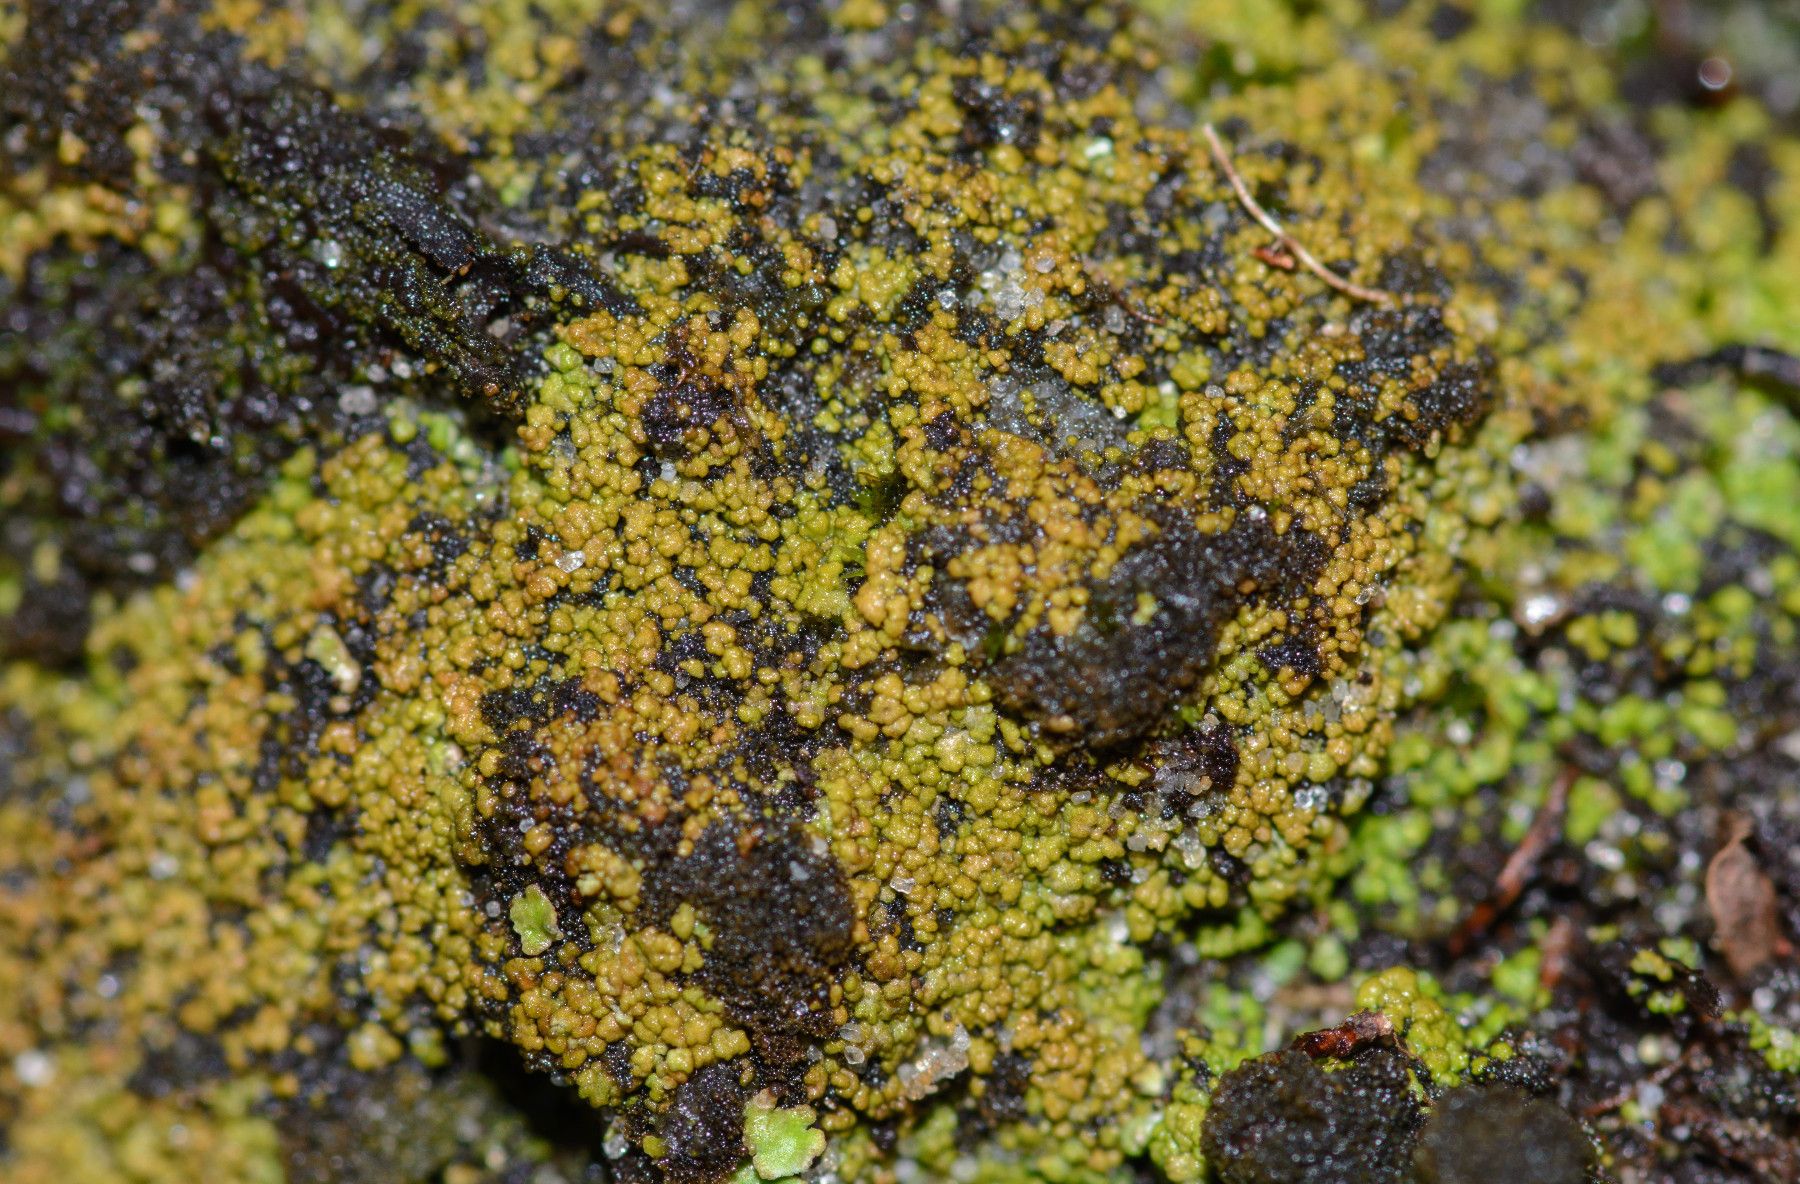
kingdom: Fungi
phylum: Ascomycota
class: Lecanoromycetes
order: Baeomycetales
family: Trapeliaceae
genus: Placynthiella
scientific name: Placynthiella oligotropha
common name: vorte-skivelav
